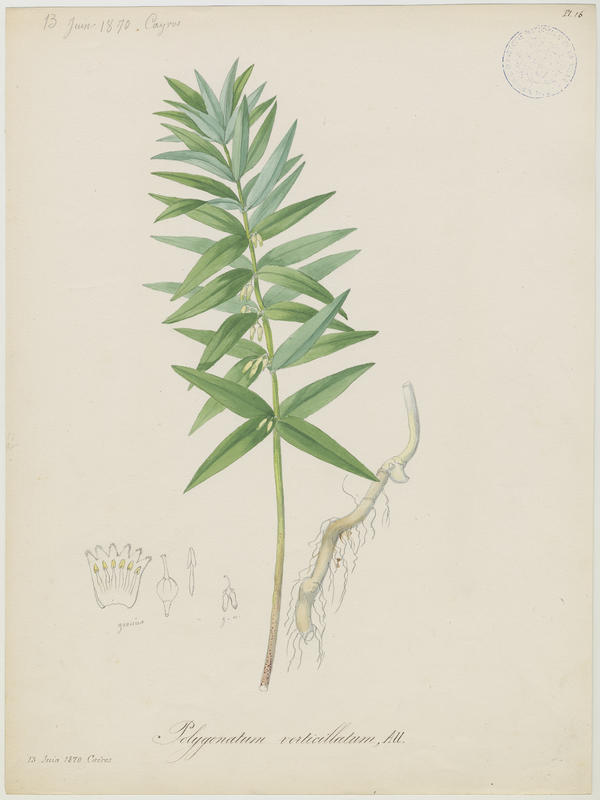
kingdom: Plantae
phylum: Tracheophyta
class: Liliopsida
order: Asparagales
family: Asparagaceae
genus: Polygonatum
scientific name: Polygonatum verticillatum
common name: Whorled solomon's-seal
